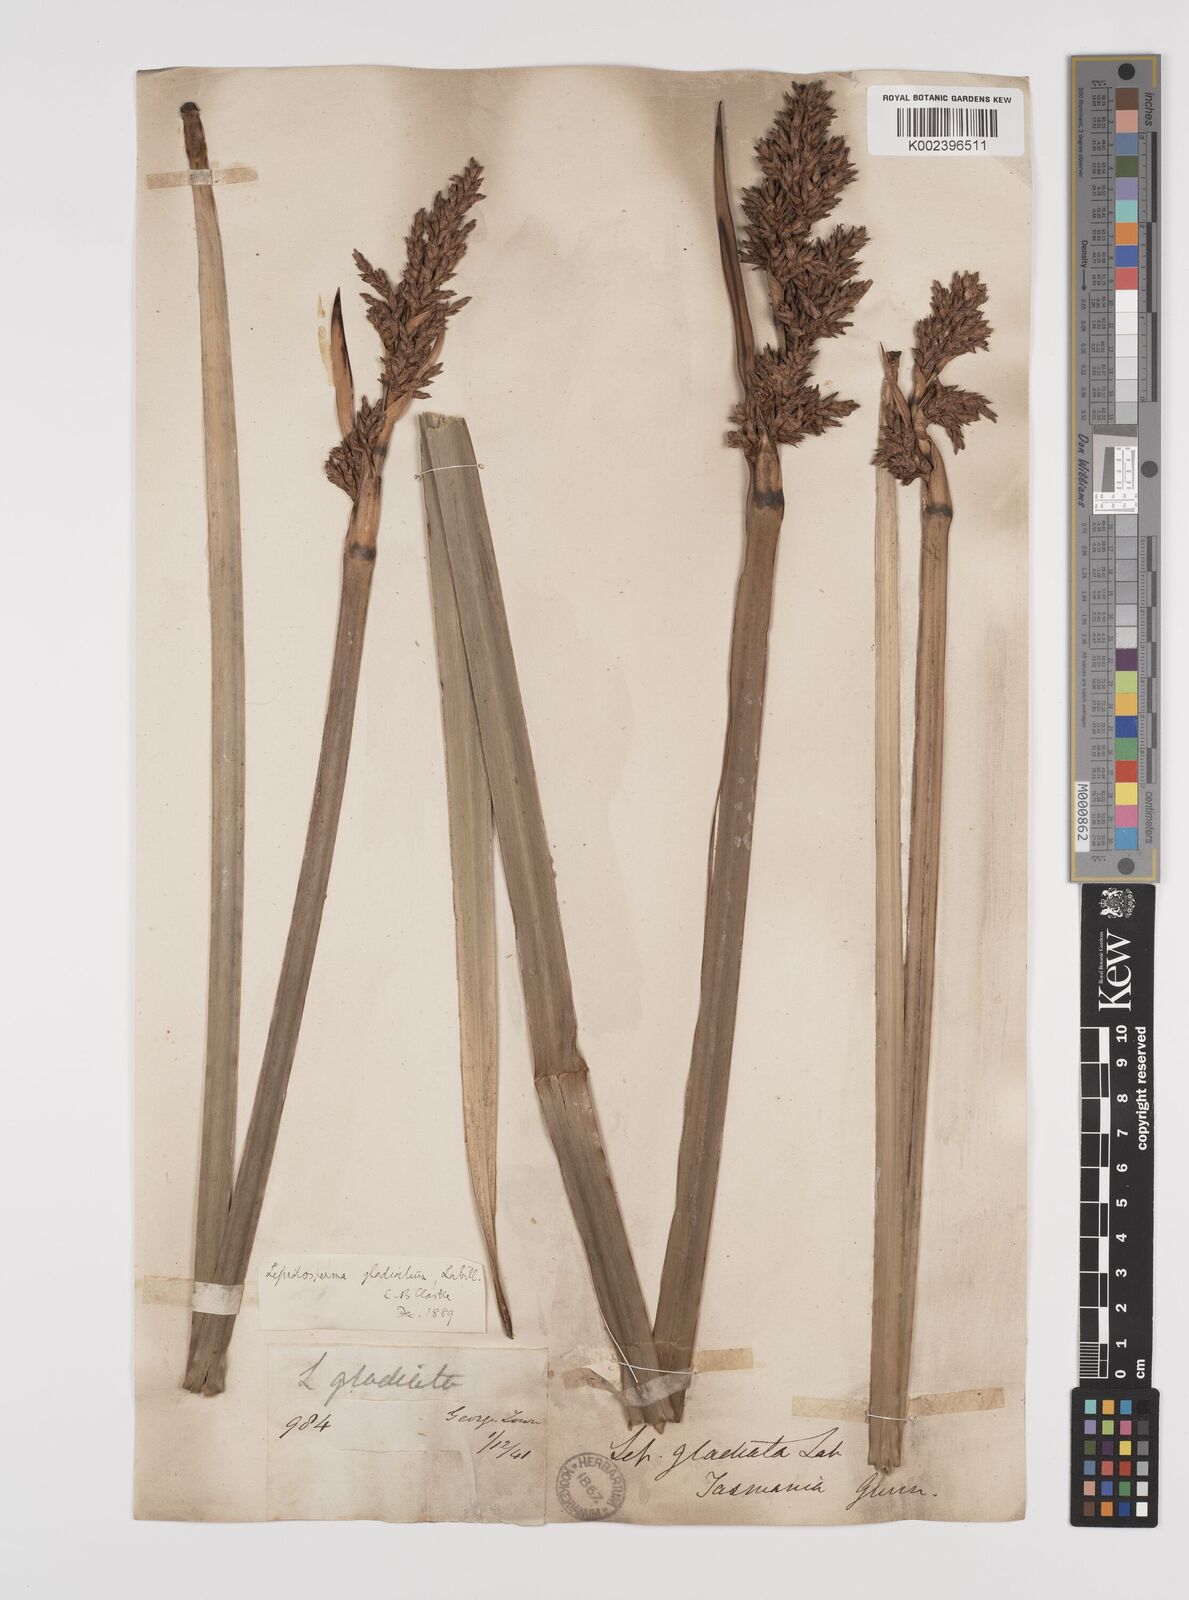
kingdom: Plantae
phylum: Tracheophyta
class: Liliopsida
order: Poales
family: Cyperaceae
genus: Lepidosperma
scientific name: Lepidosperma gladiatum
